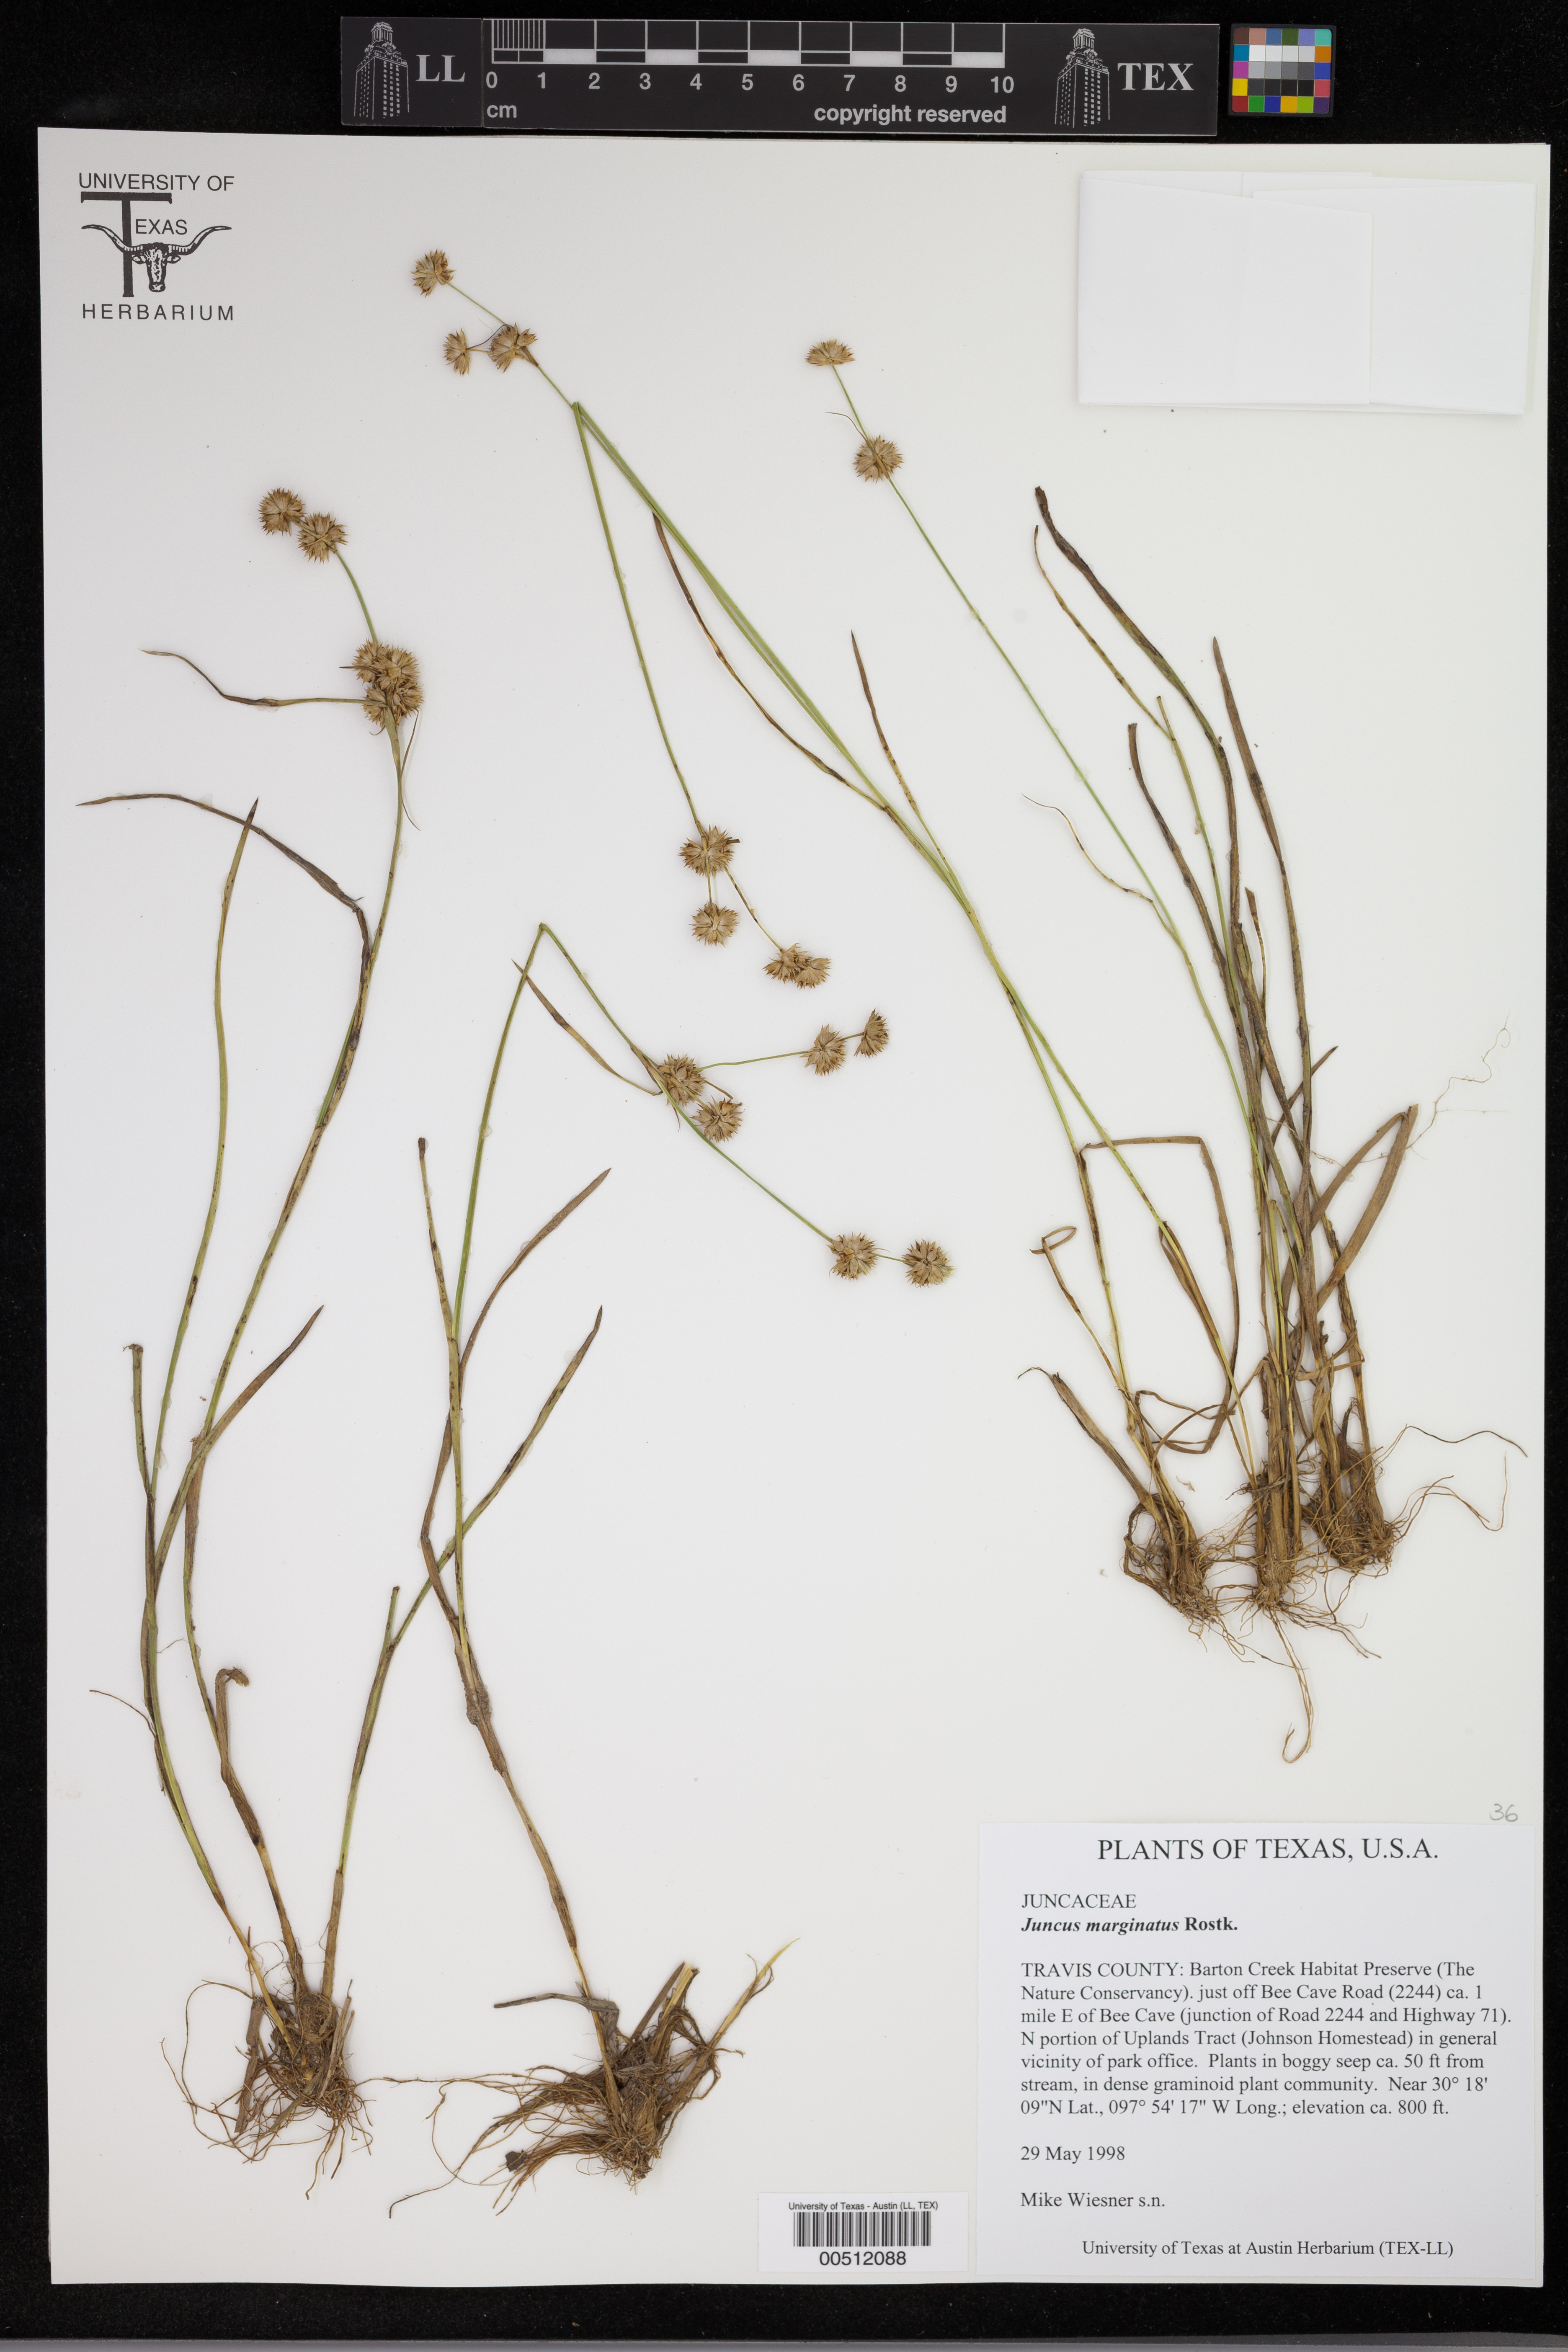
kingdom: Plantae
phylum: Tracheophyta
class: Liliopsida
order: Poales
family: Juncaceae
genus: Juncus
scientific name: Juncus marginatus
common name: Grass-leaf rush
